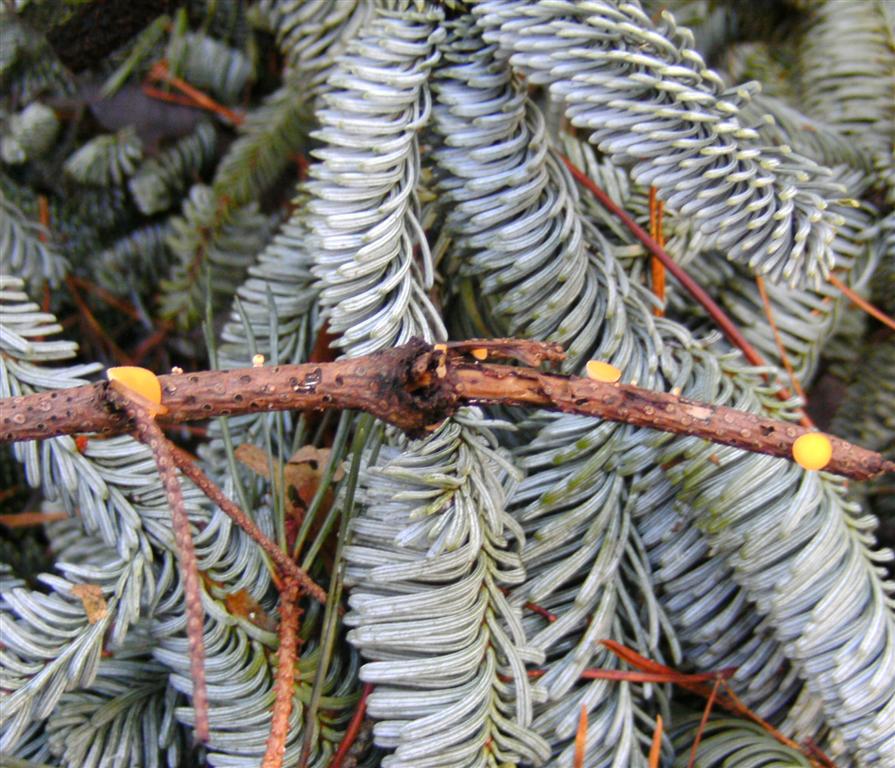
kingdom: Fungi
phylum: Ascomycota
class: Pezizomycetes
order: Pezizales
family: Sarcoscyphaceae
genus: Pithya
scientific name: Pithya vulgaris
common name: stor dukatbæger
